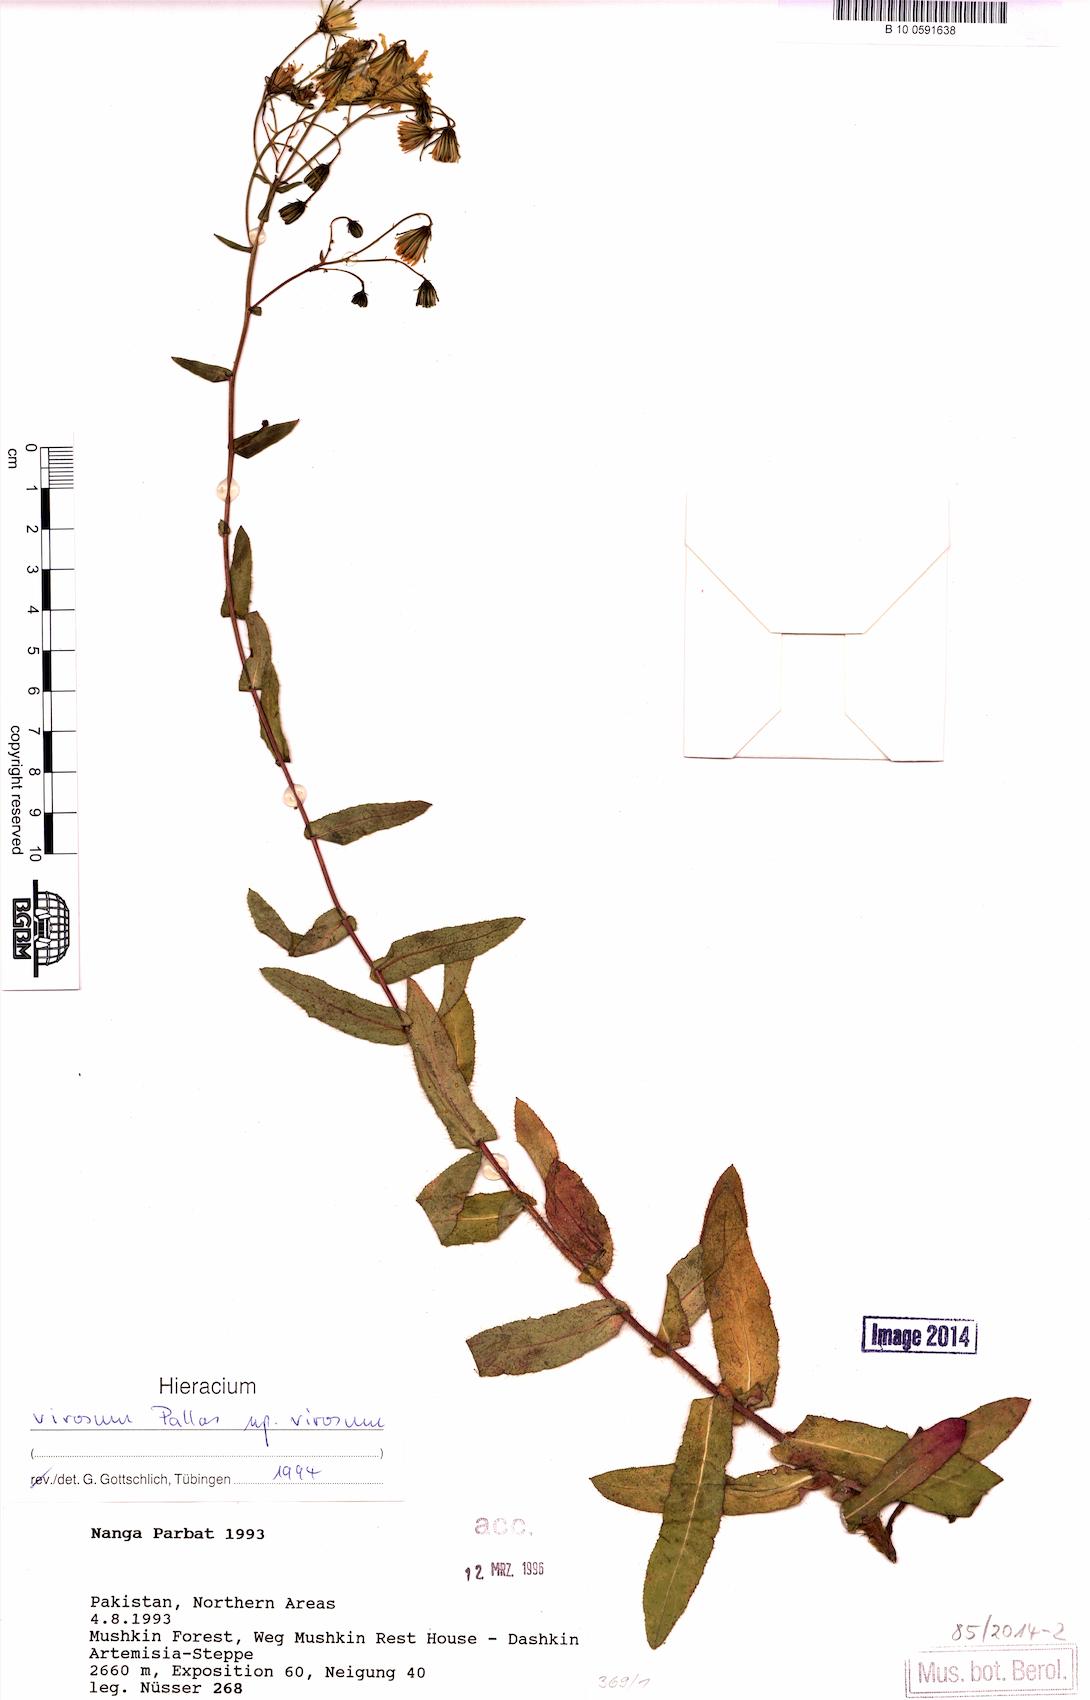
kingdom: Plantae
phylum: Tracheophyta
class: Magnoliopsida
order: Asterales
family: Asteraceae
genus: Hieracium
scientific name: Hieracium virosum
